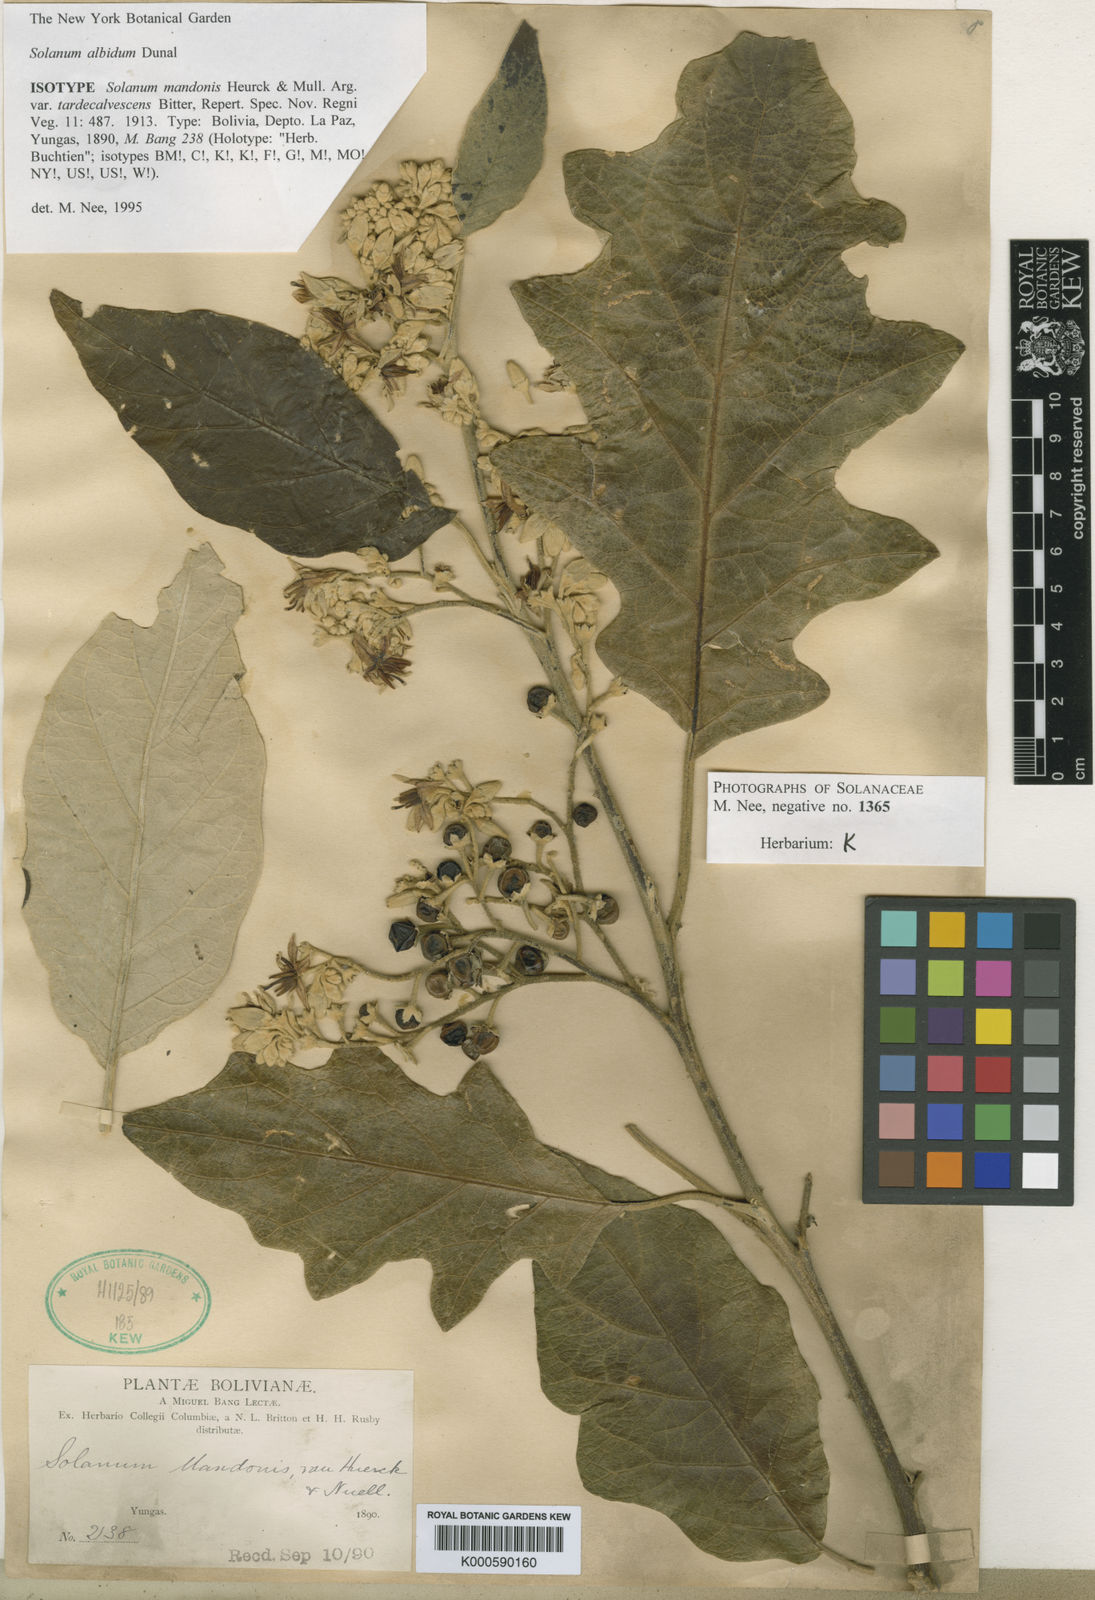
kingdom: Plantae
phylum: Tracheophyta
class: Magnoliopsida
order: Solanales
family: Solanaceae
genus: Solanum
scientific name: Solanum albidum
